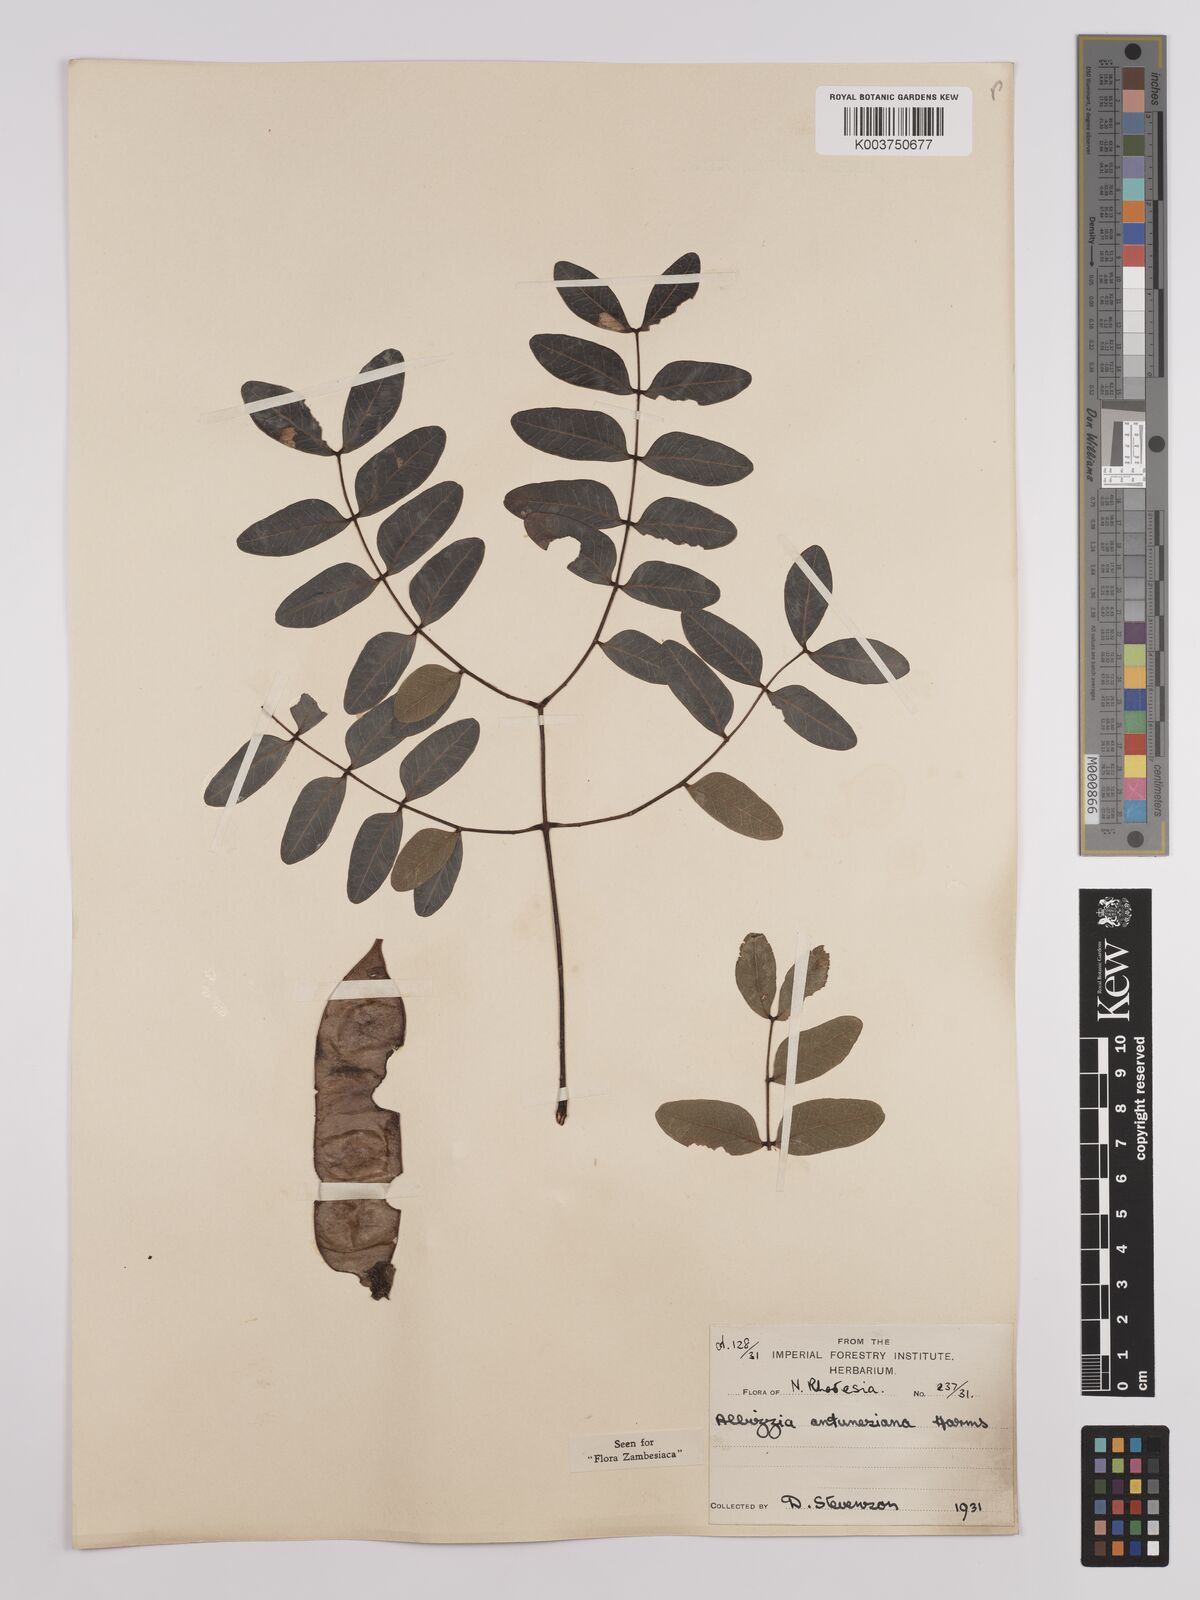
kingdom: Plantae
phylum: Tracheophyta
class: Magnoliopsida
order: Fabales
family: Fabaceae
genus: Albizia
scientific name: Albizia antunesiana
